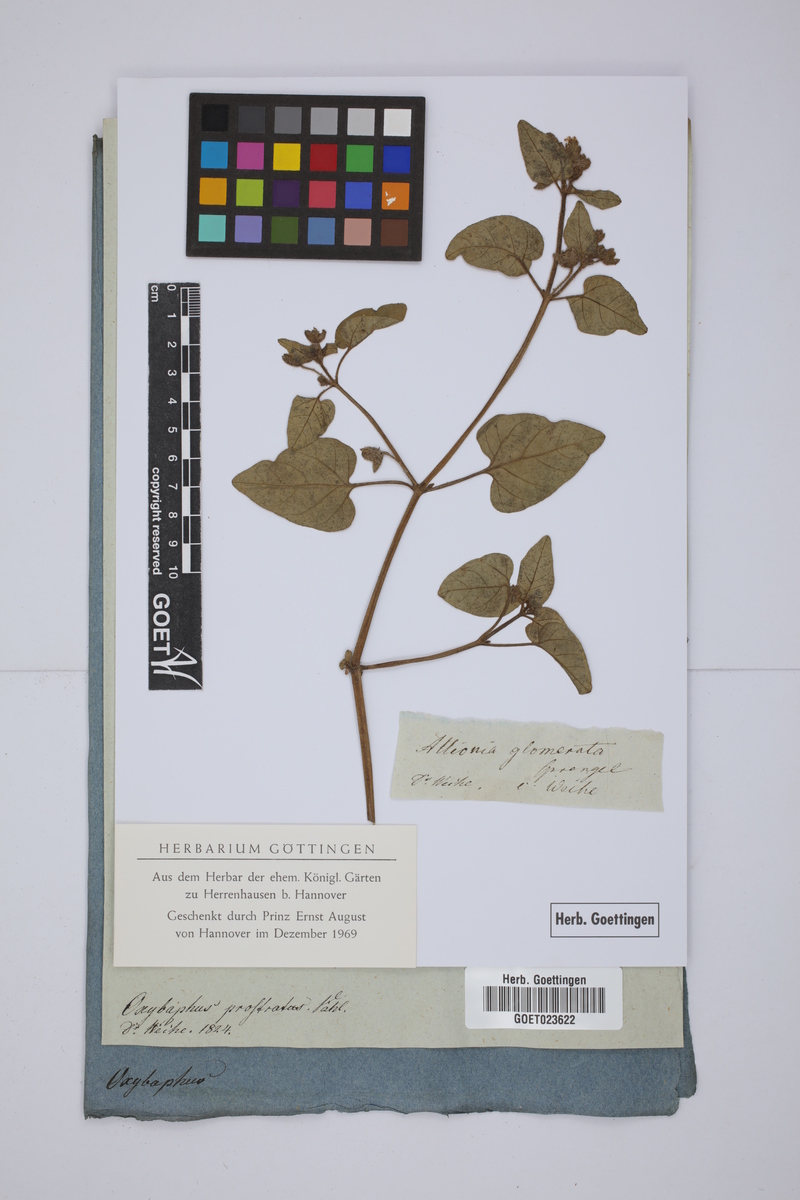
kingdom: Plantae
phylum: Tracheophyta
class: Magnoliopsida
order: Caryophyllales
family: Nyctaginaceae
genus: Mirabilis
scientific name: Mirabilis prostrata
